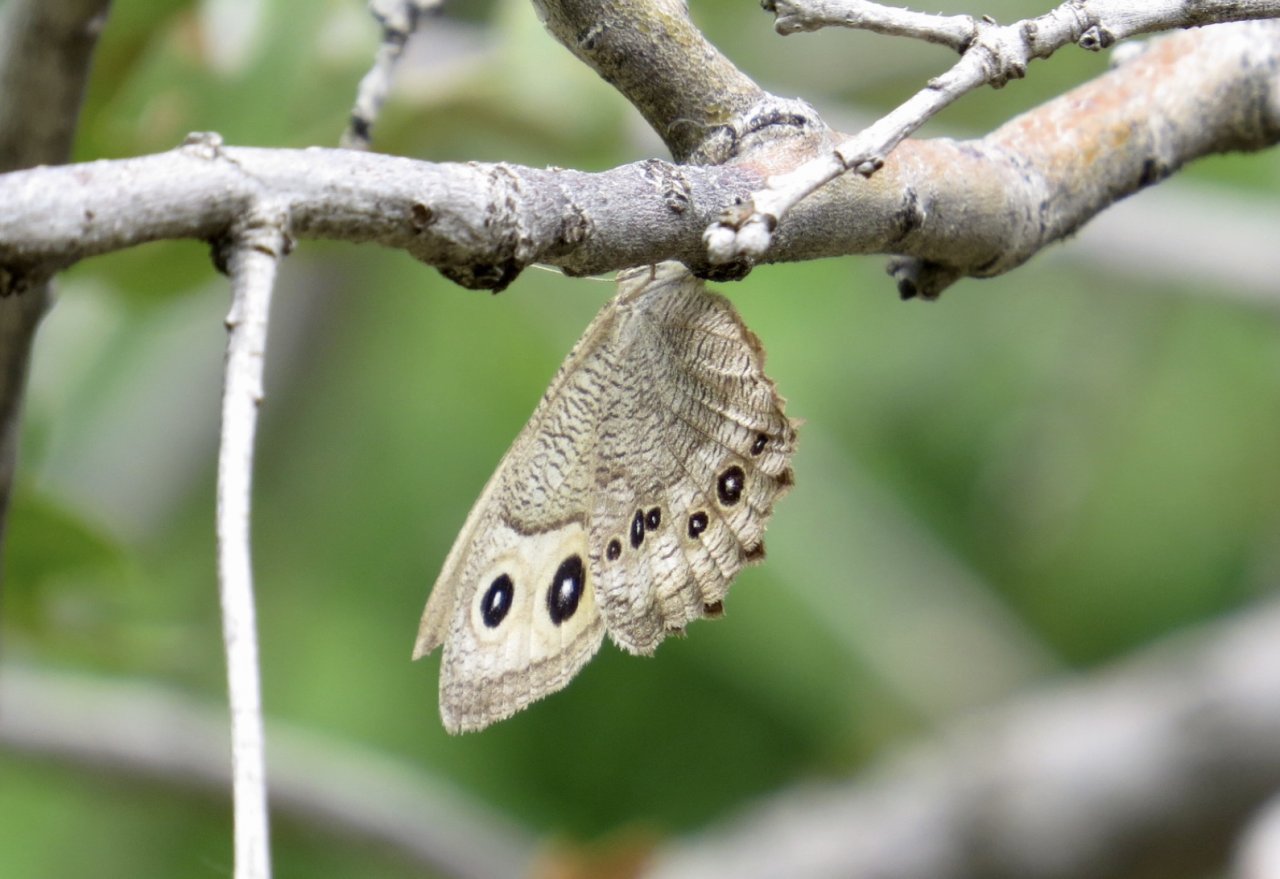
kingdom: Animalia
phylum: Arthropoda
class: Insecta
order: Lepidoptera
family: Nymphalidae
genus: Cercyonis
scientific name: Cercyonis pegala
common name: Common Wood-Nymph
